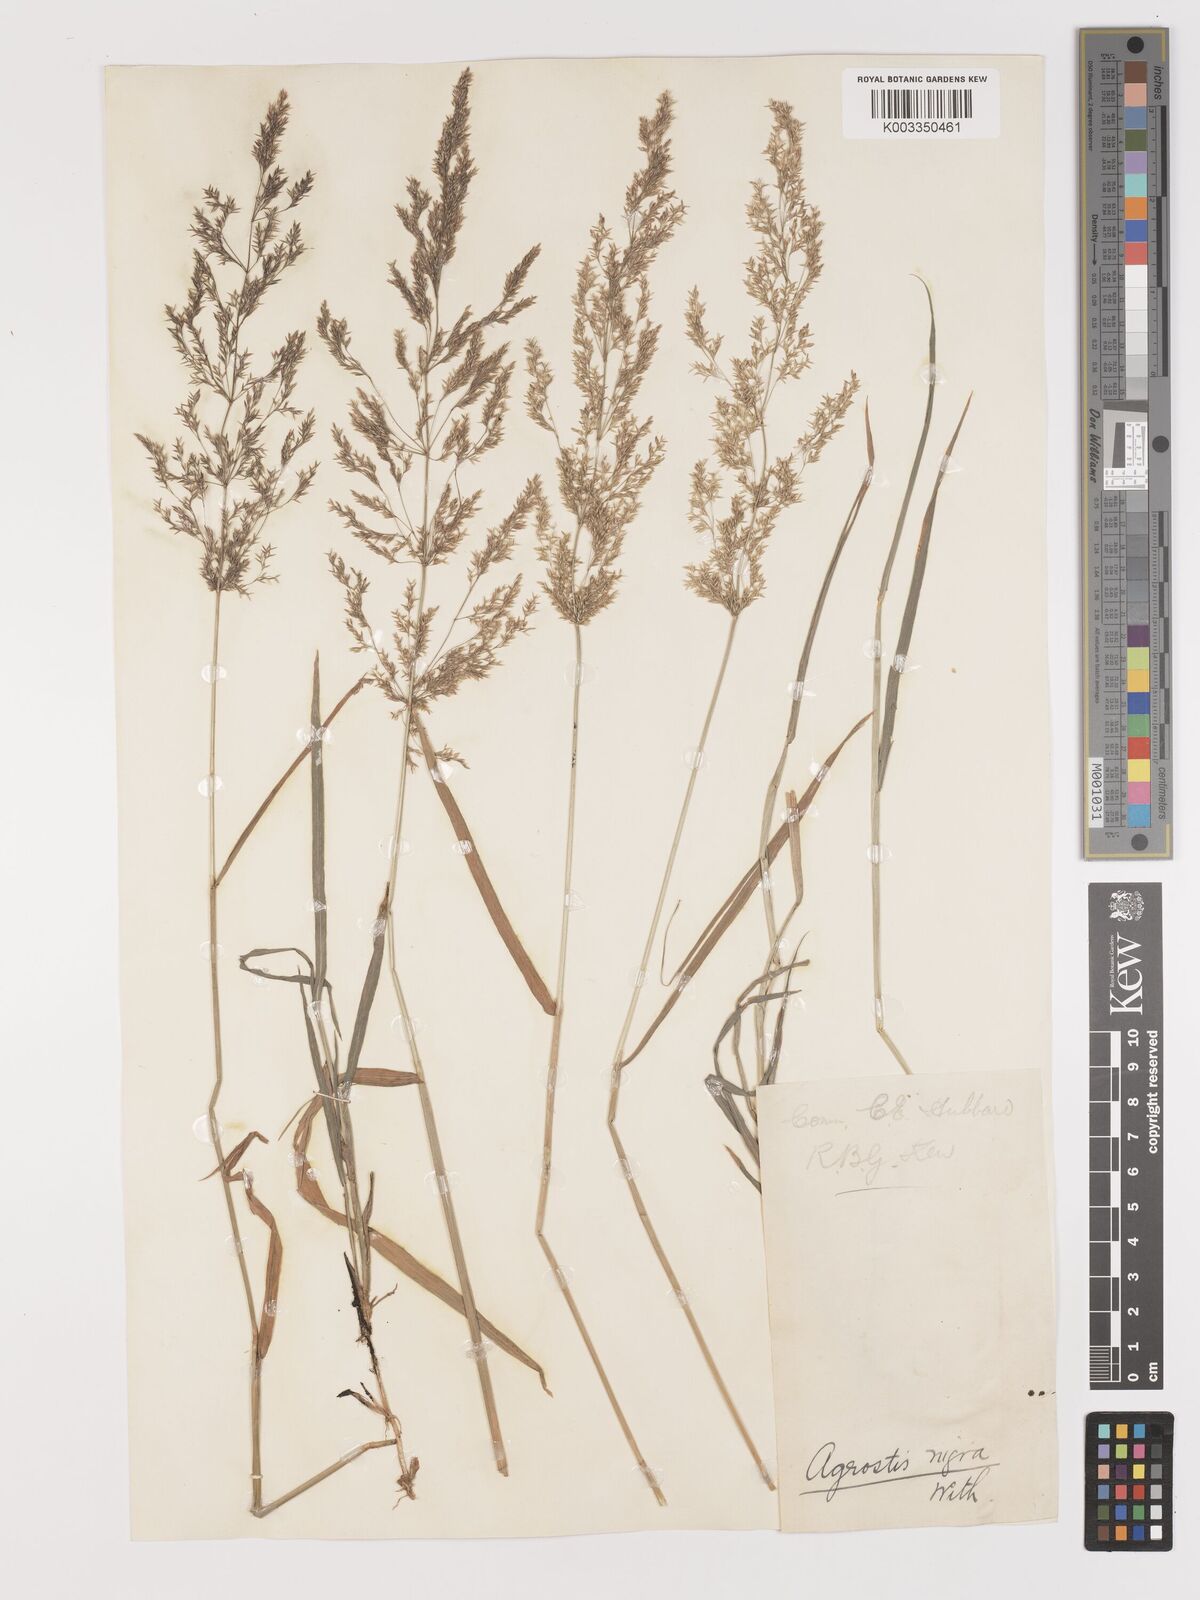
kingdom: Plantae
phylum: Tracheophyta
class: Liliopsida
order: Poales
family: Poaceae
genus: Agrostis
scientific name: Agrostis gigantea
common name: Black bent
